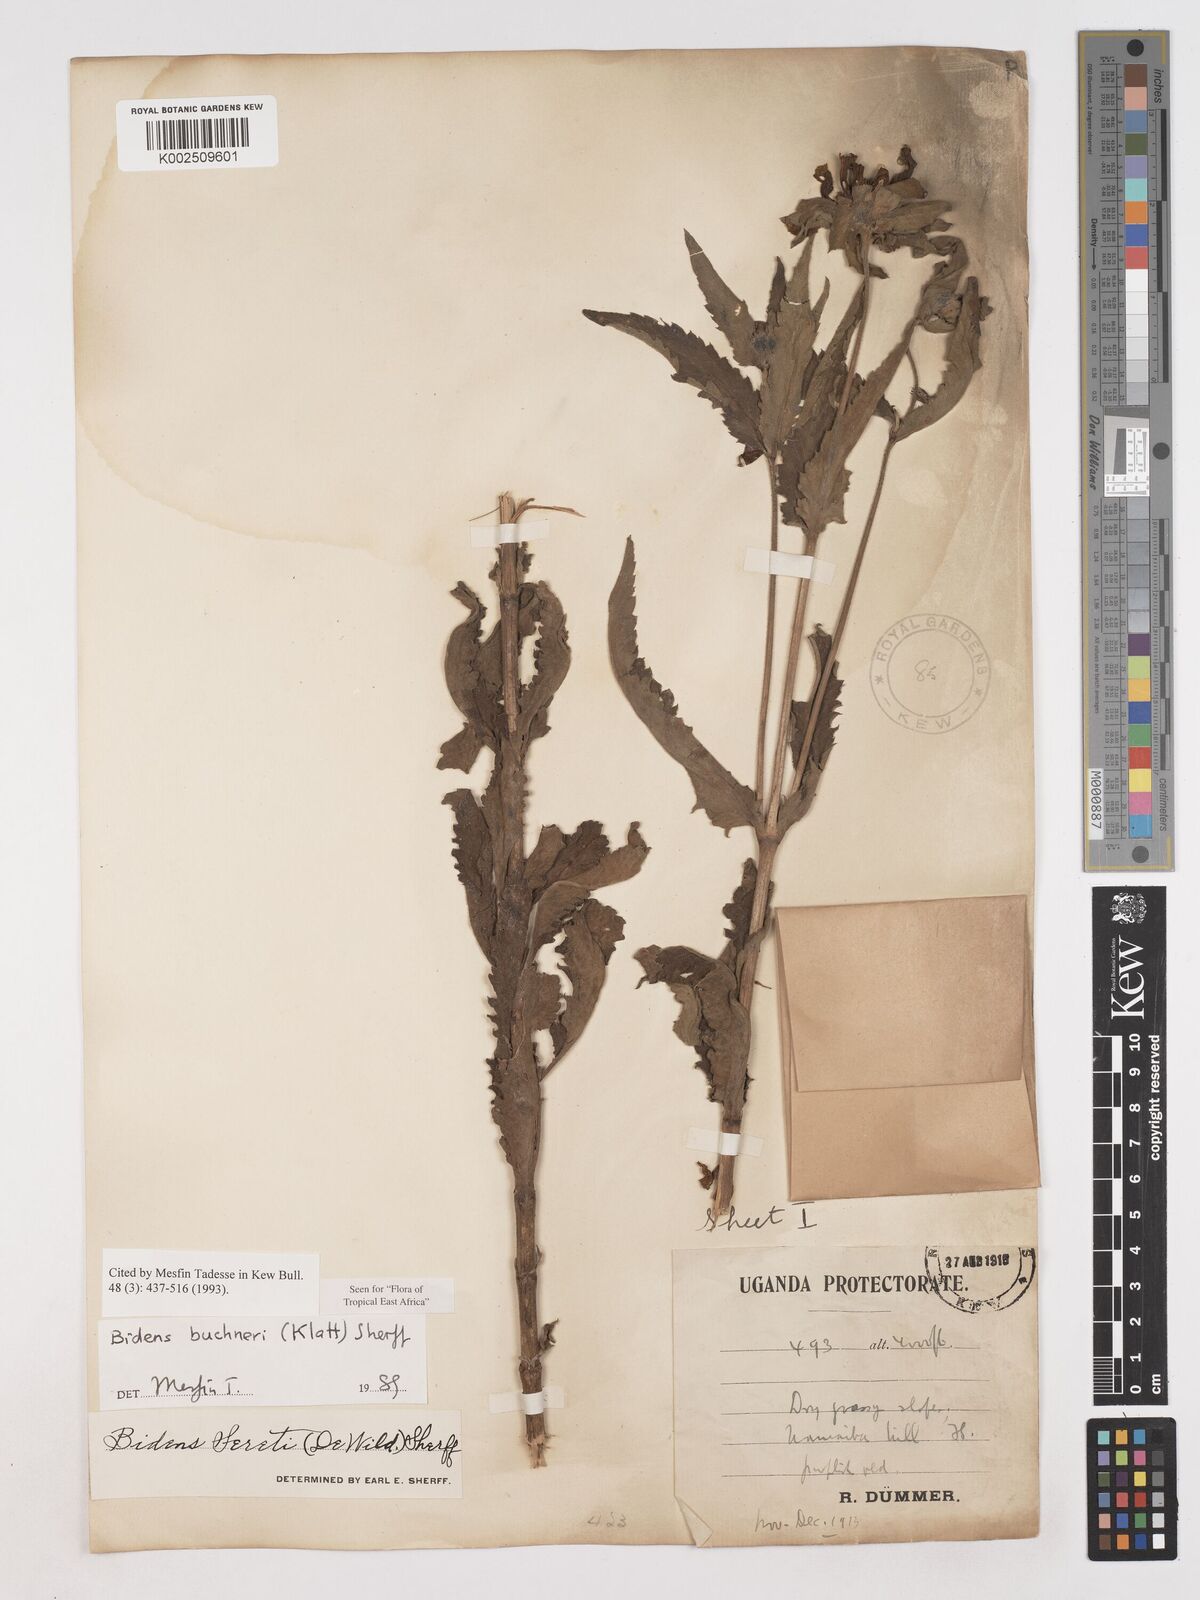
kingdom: Plantae
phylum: Tracheophyta
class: Magnoliopsida
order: Asterales
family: Asteraceae
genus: Bidens
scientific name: Bidens buchneri
